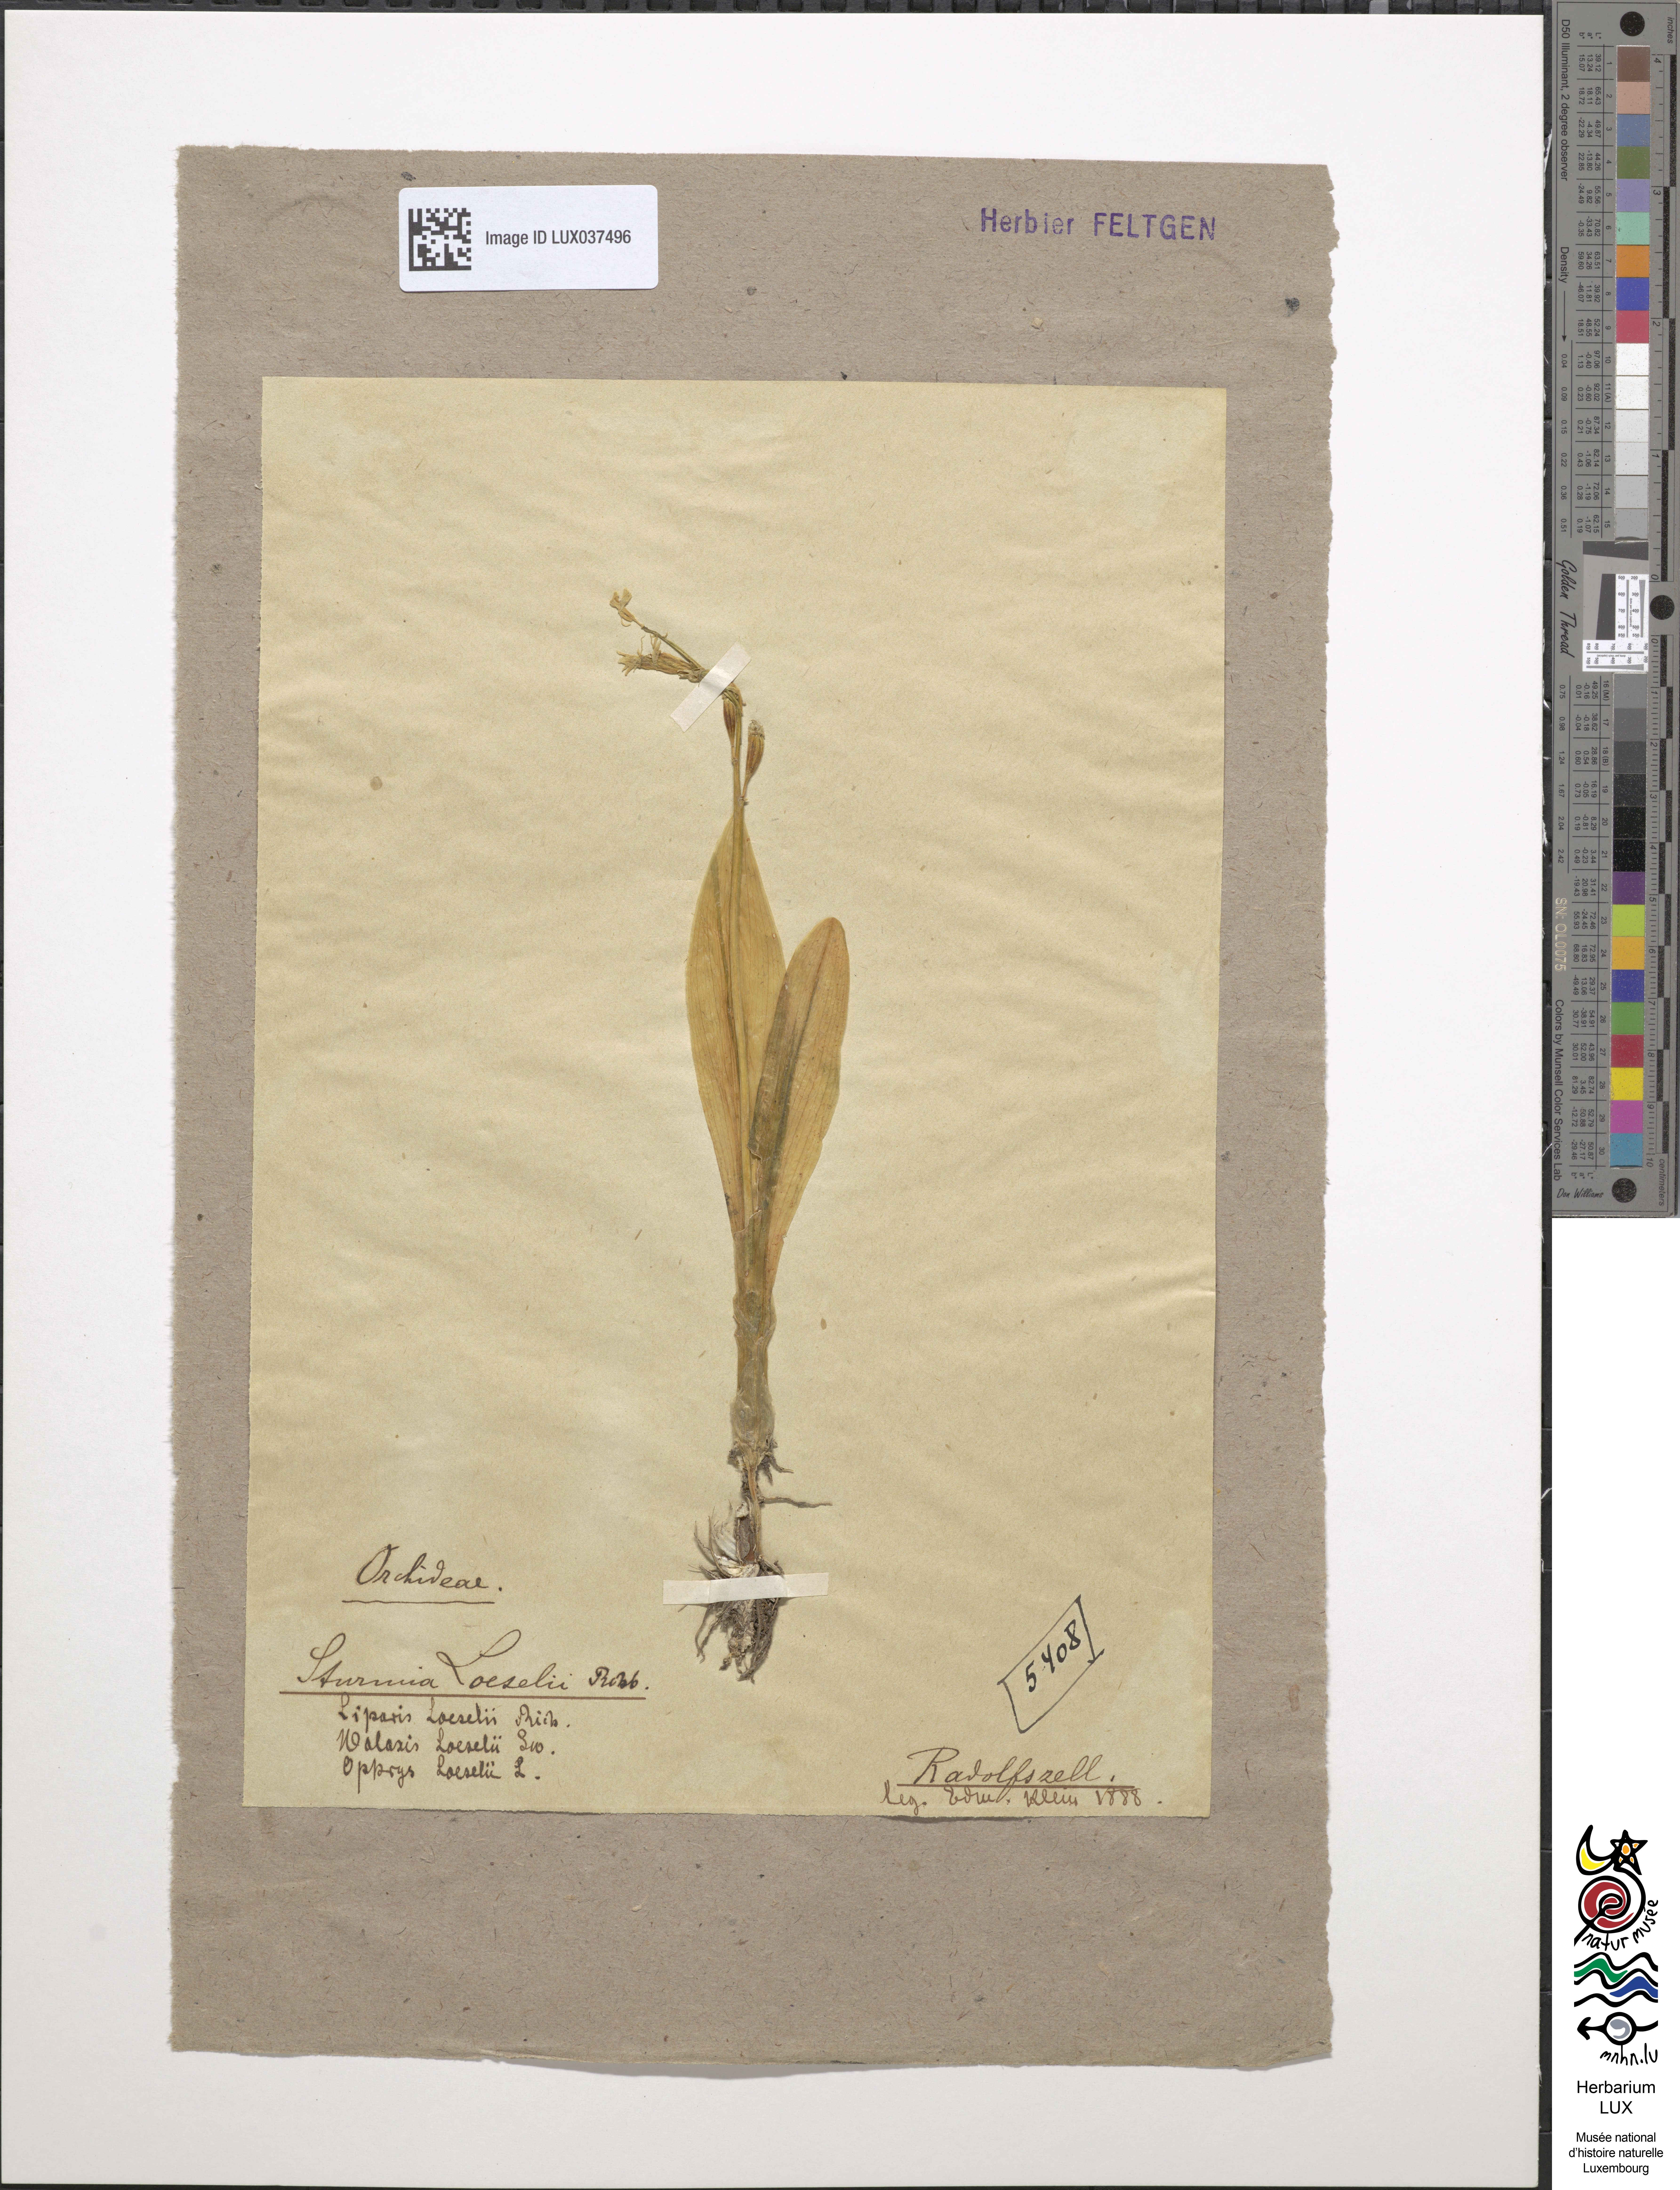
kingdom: Animalia
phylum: Arthropoda
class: Insecta
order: Coleoptera
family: Curculionidae
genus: Liparis
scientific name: Liparis loeselii
